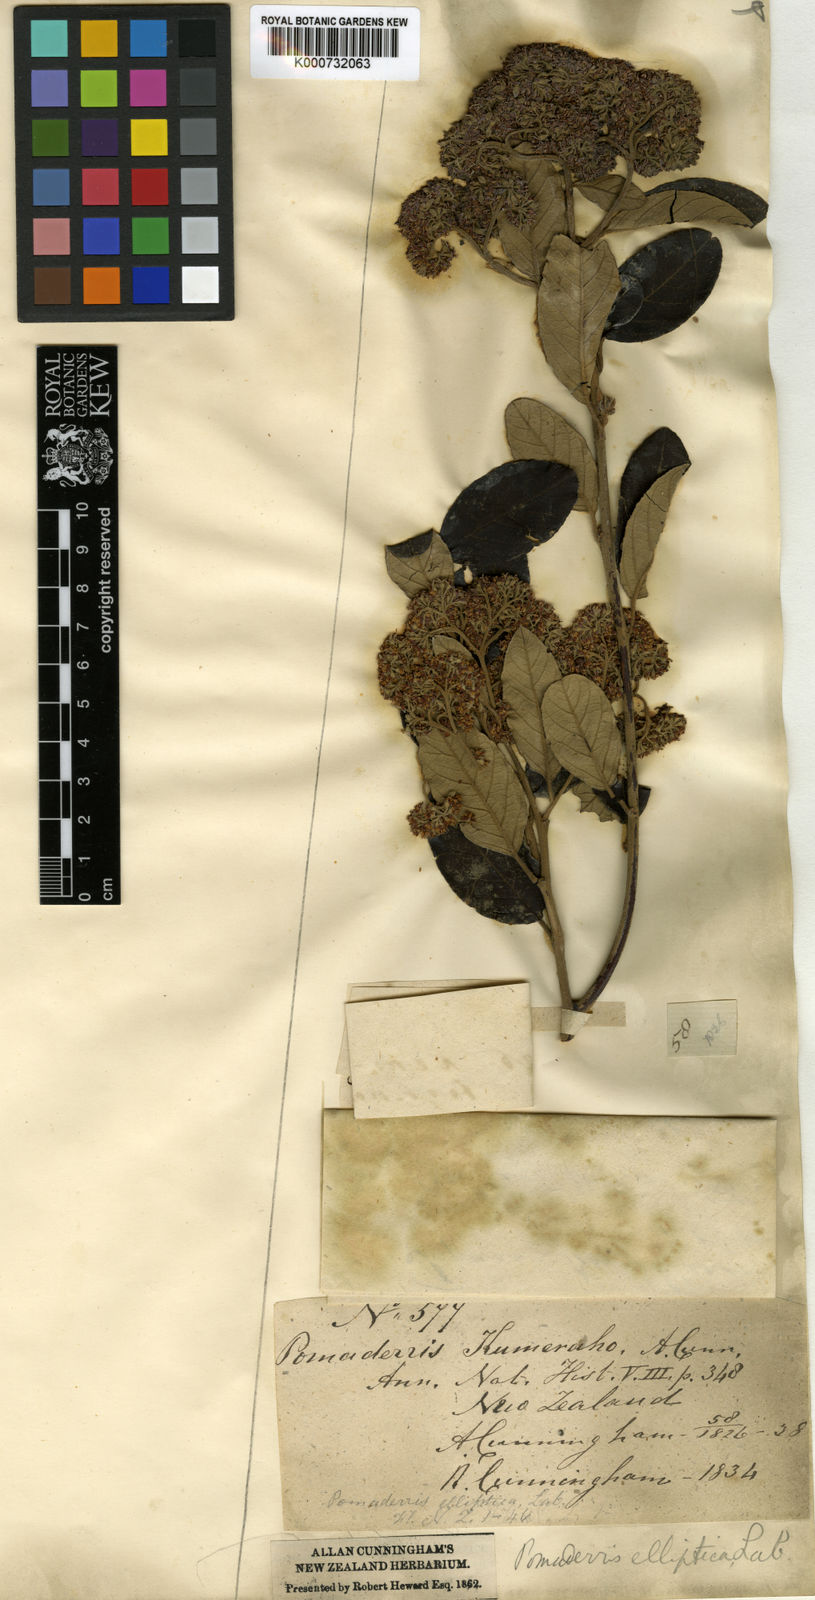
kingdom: Plantae
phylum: Tracheophyta
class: Magnoliopsida
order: Rosales
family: Rhamnaceae
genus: Pomaderris
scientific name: Pomaderris kumeraho
